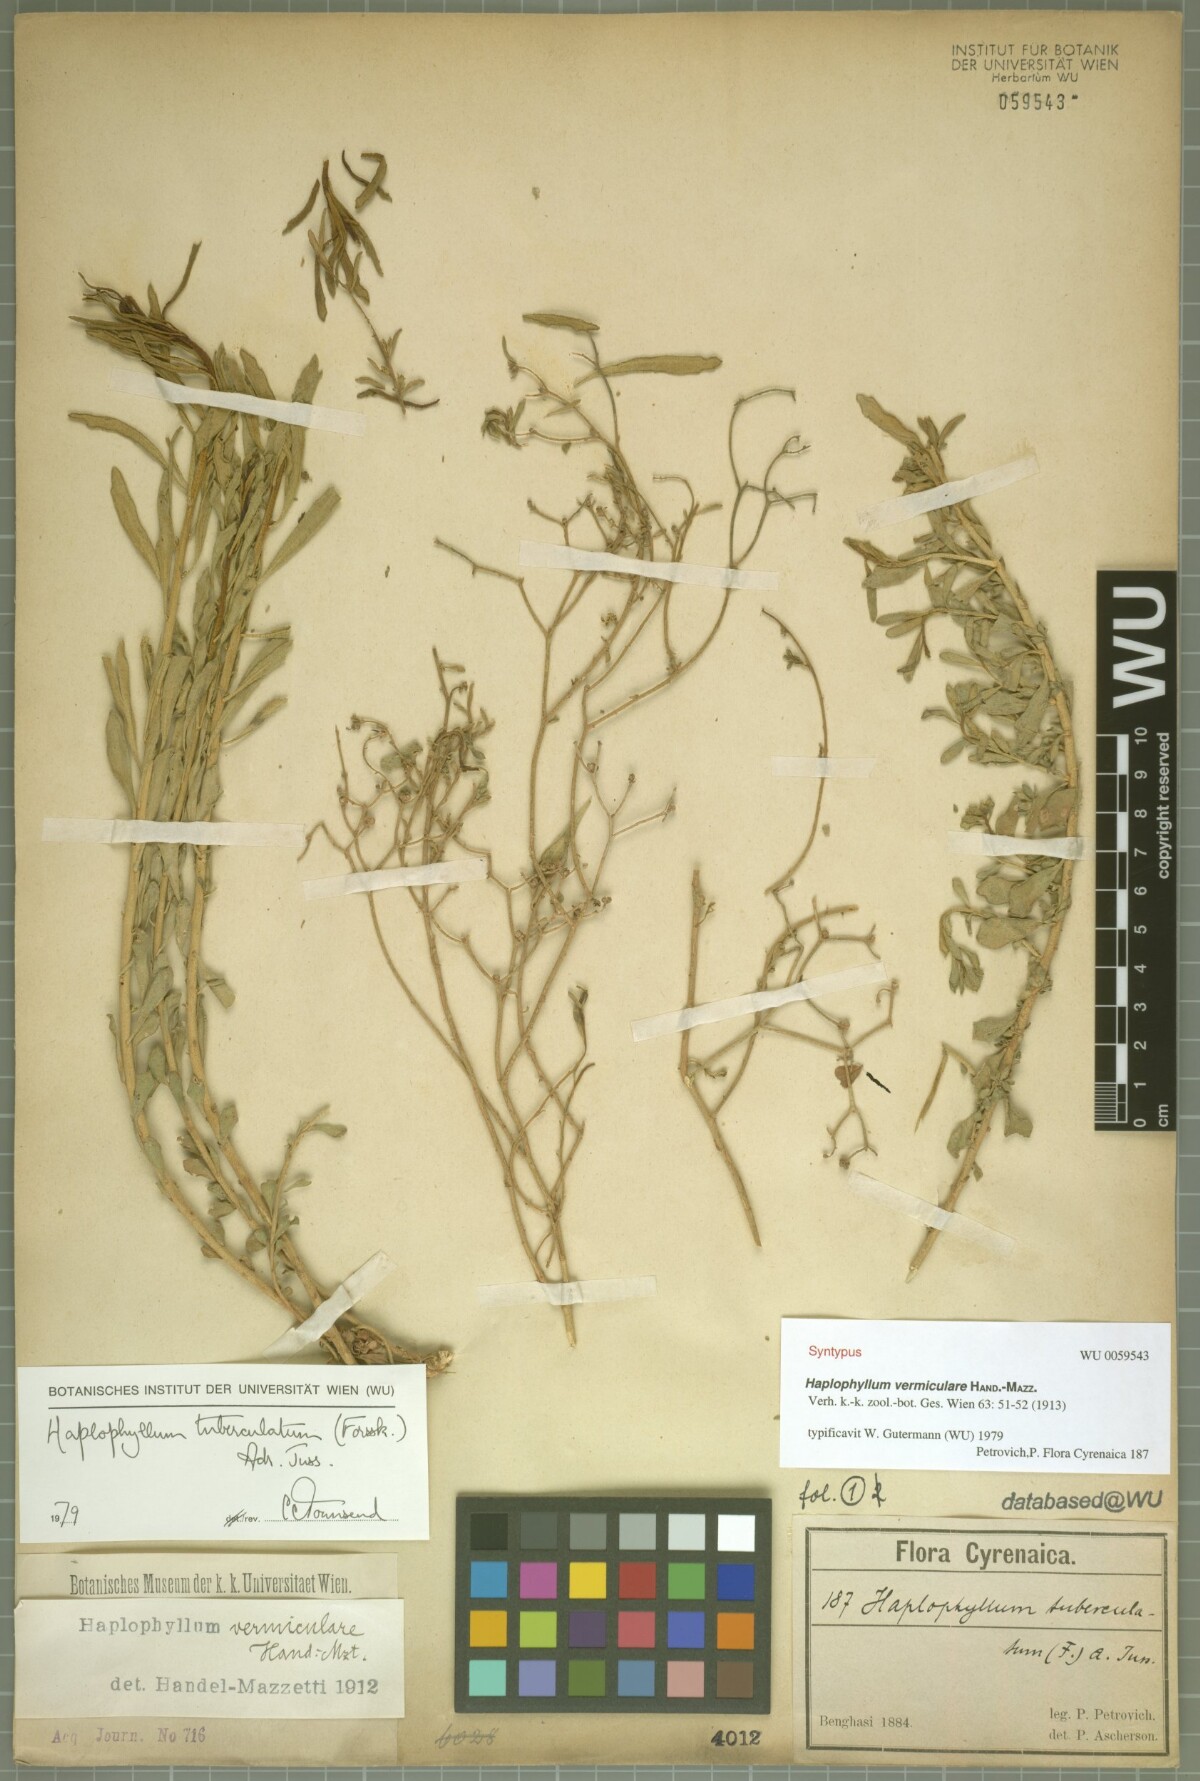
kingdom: Plantae
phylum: Tracheophyta
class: Magnoliopsida
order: Sapindales
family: Rutaceae
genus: Haplophyllum
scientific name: Haplophyllum tuberculatum
